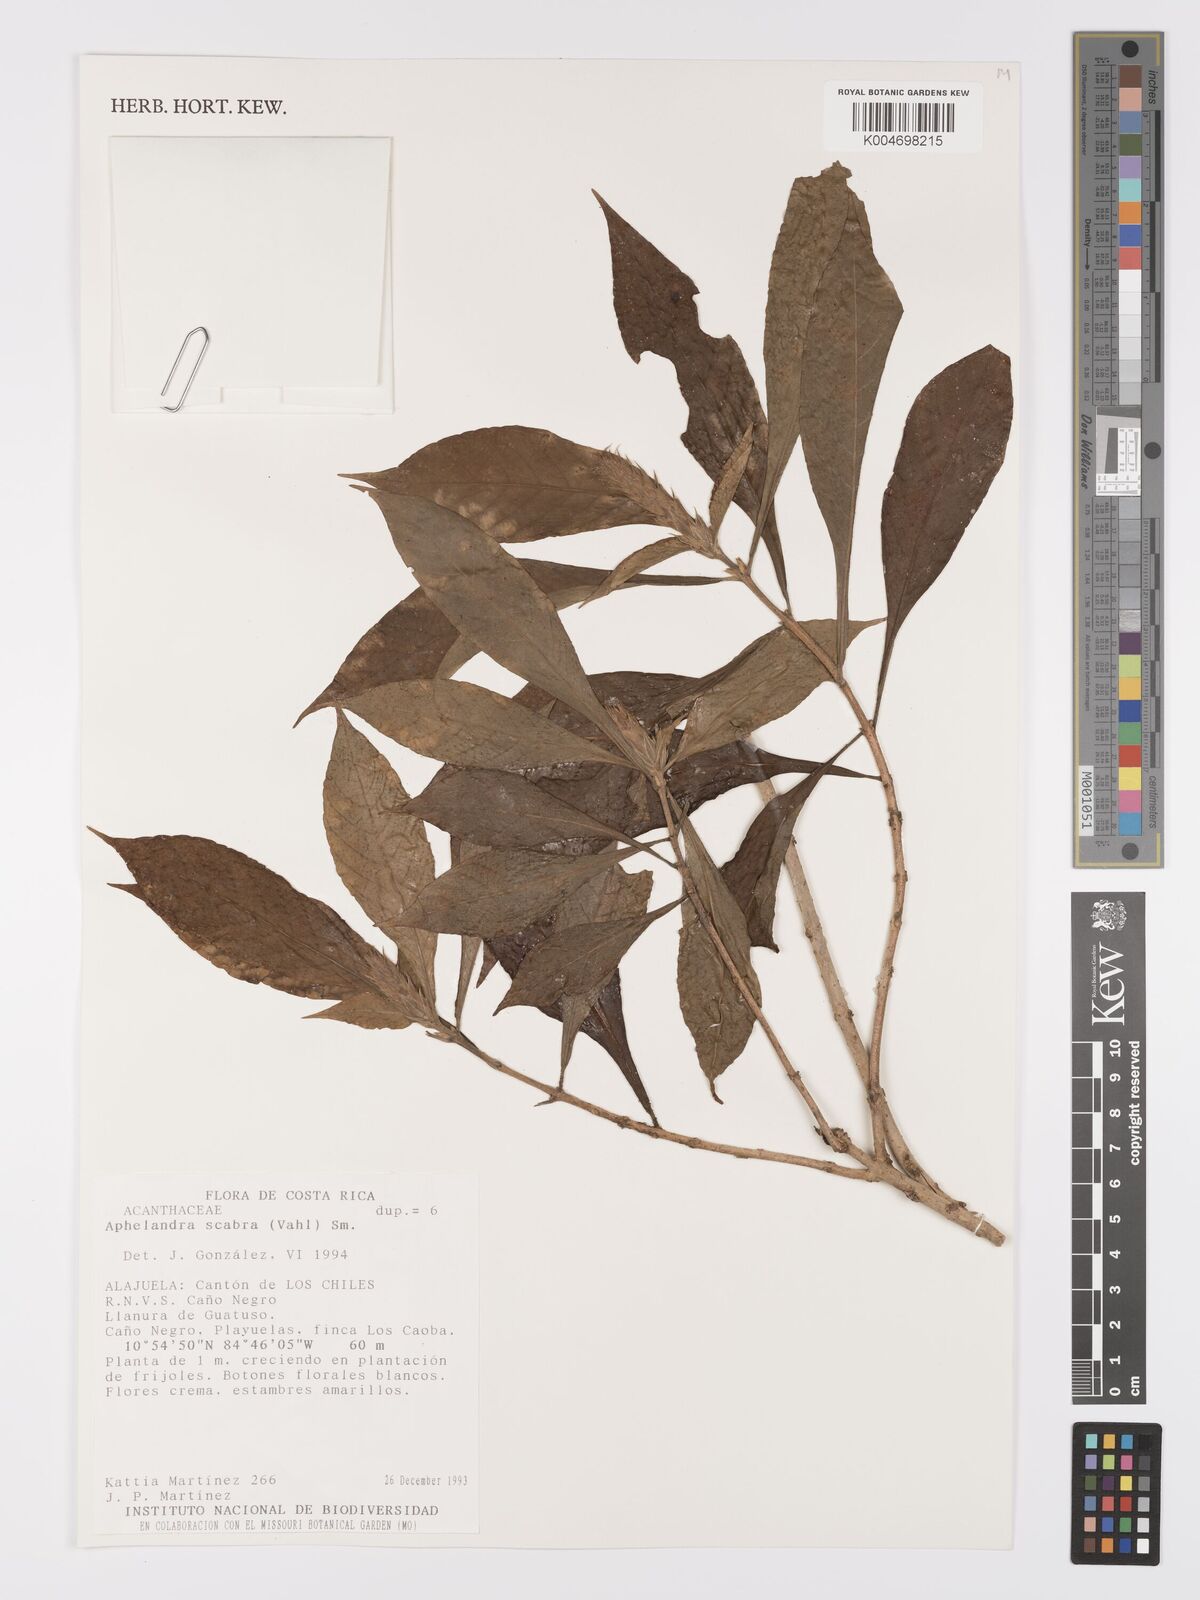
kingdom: Plantae
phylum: Tracheophyta
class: Magnoliopsida
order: Lamiales
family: Acanthaceae
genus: Aphelandra
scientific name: Aphelandra scabra
